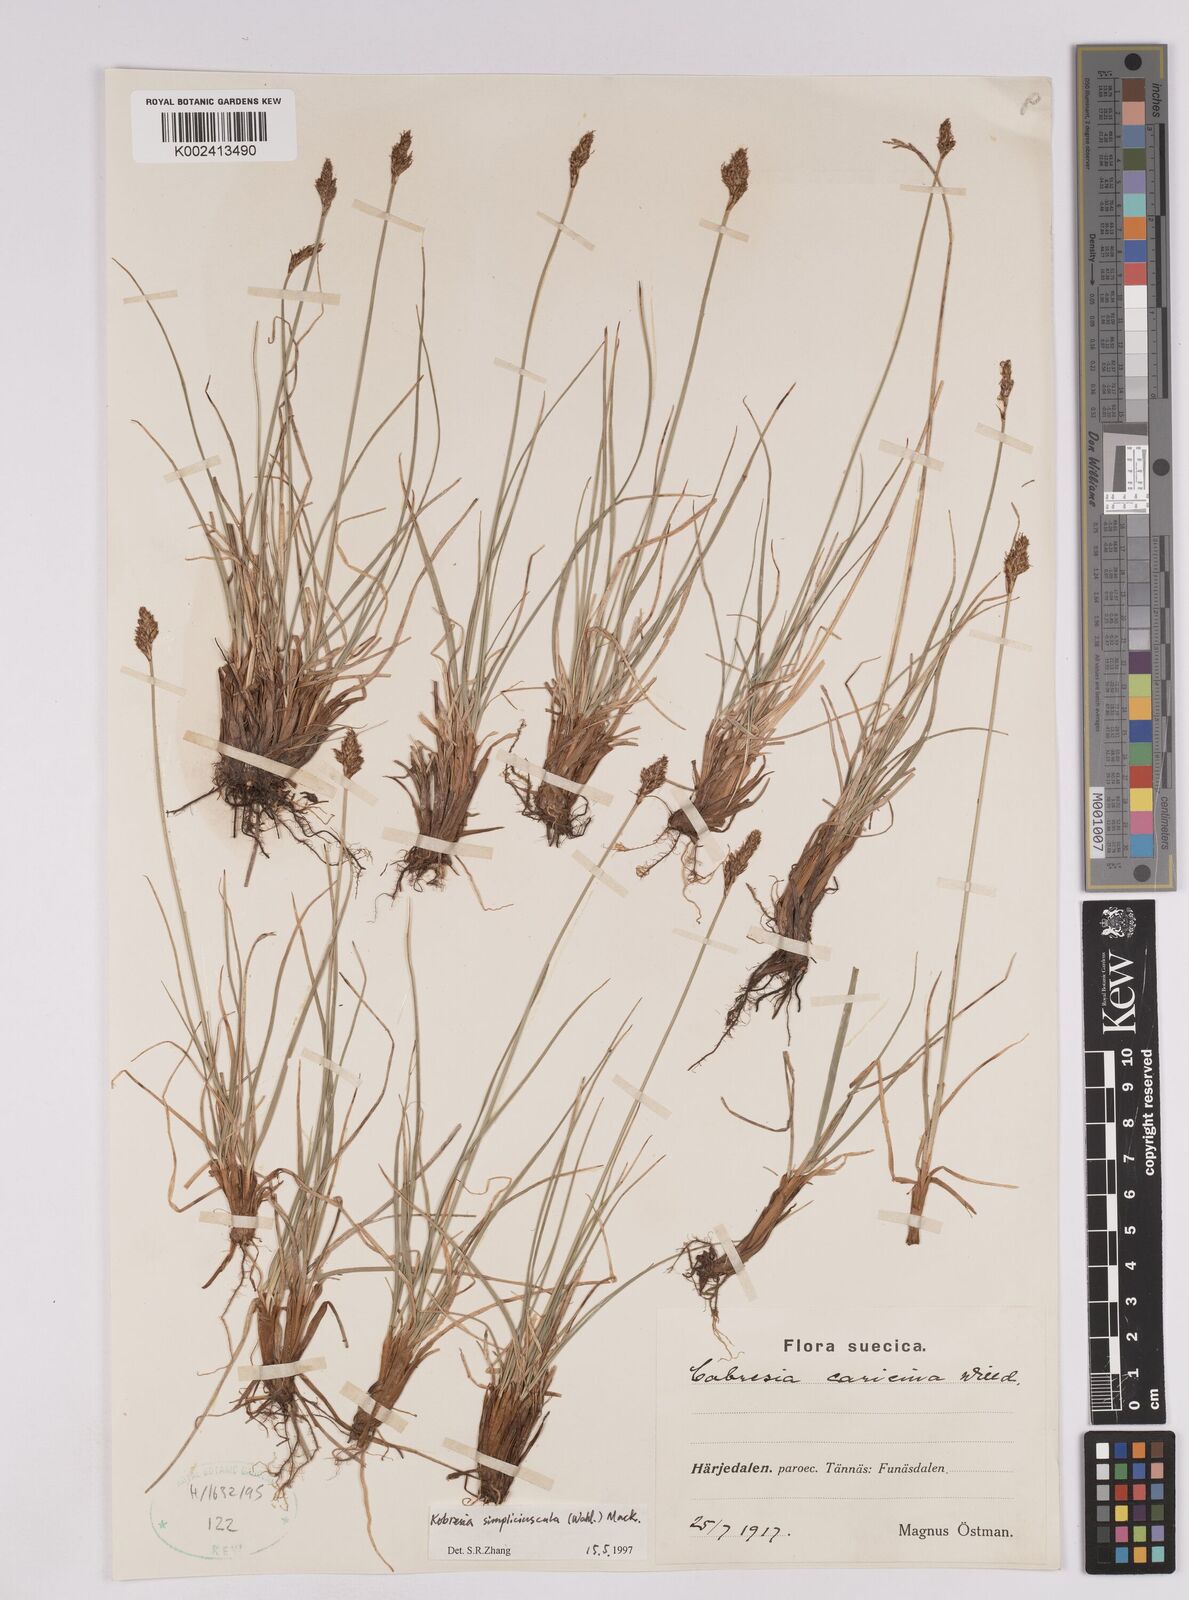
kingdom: Plantae
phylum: Tracheophyta
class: Liliopsida
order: Poales
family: Cyperaceae
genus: Carex
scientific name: Carex simpliciuscula
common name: Simple bog sedge
